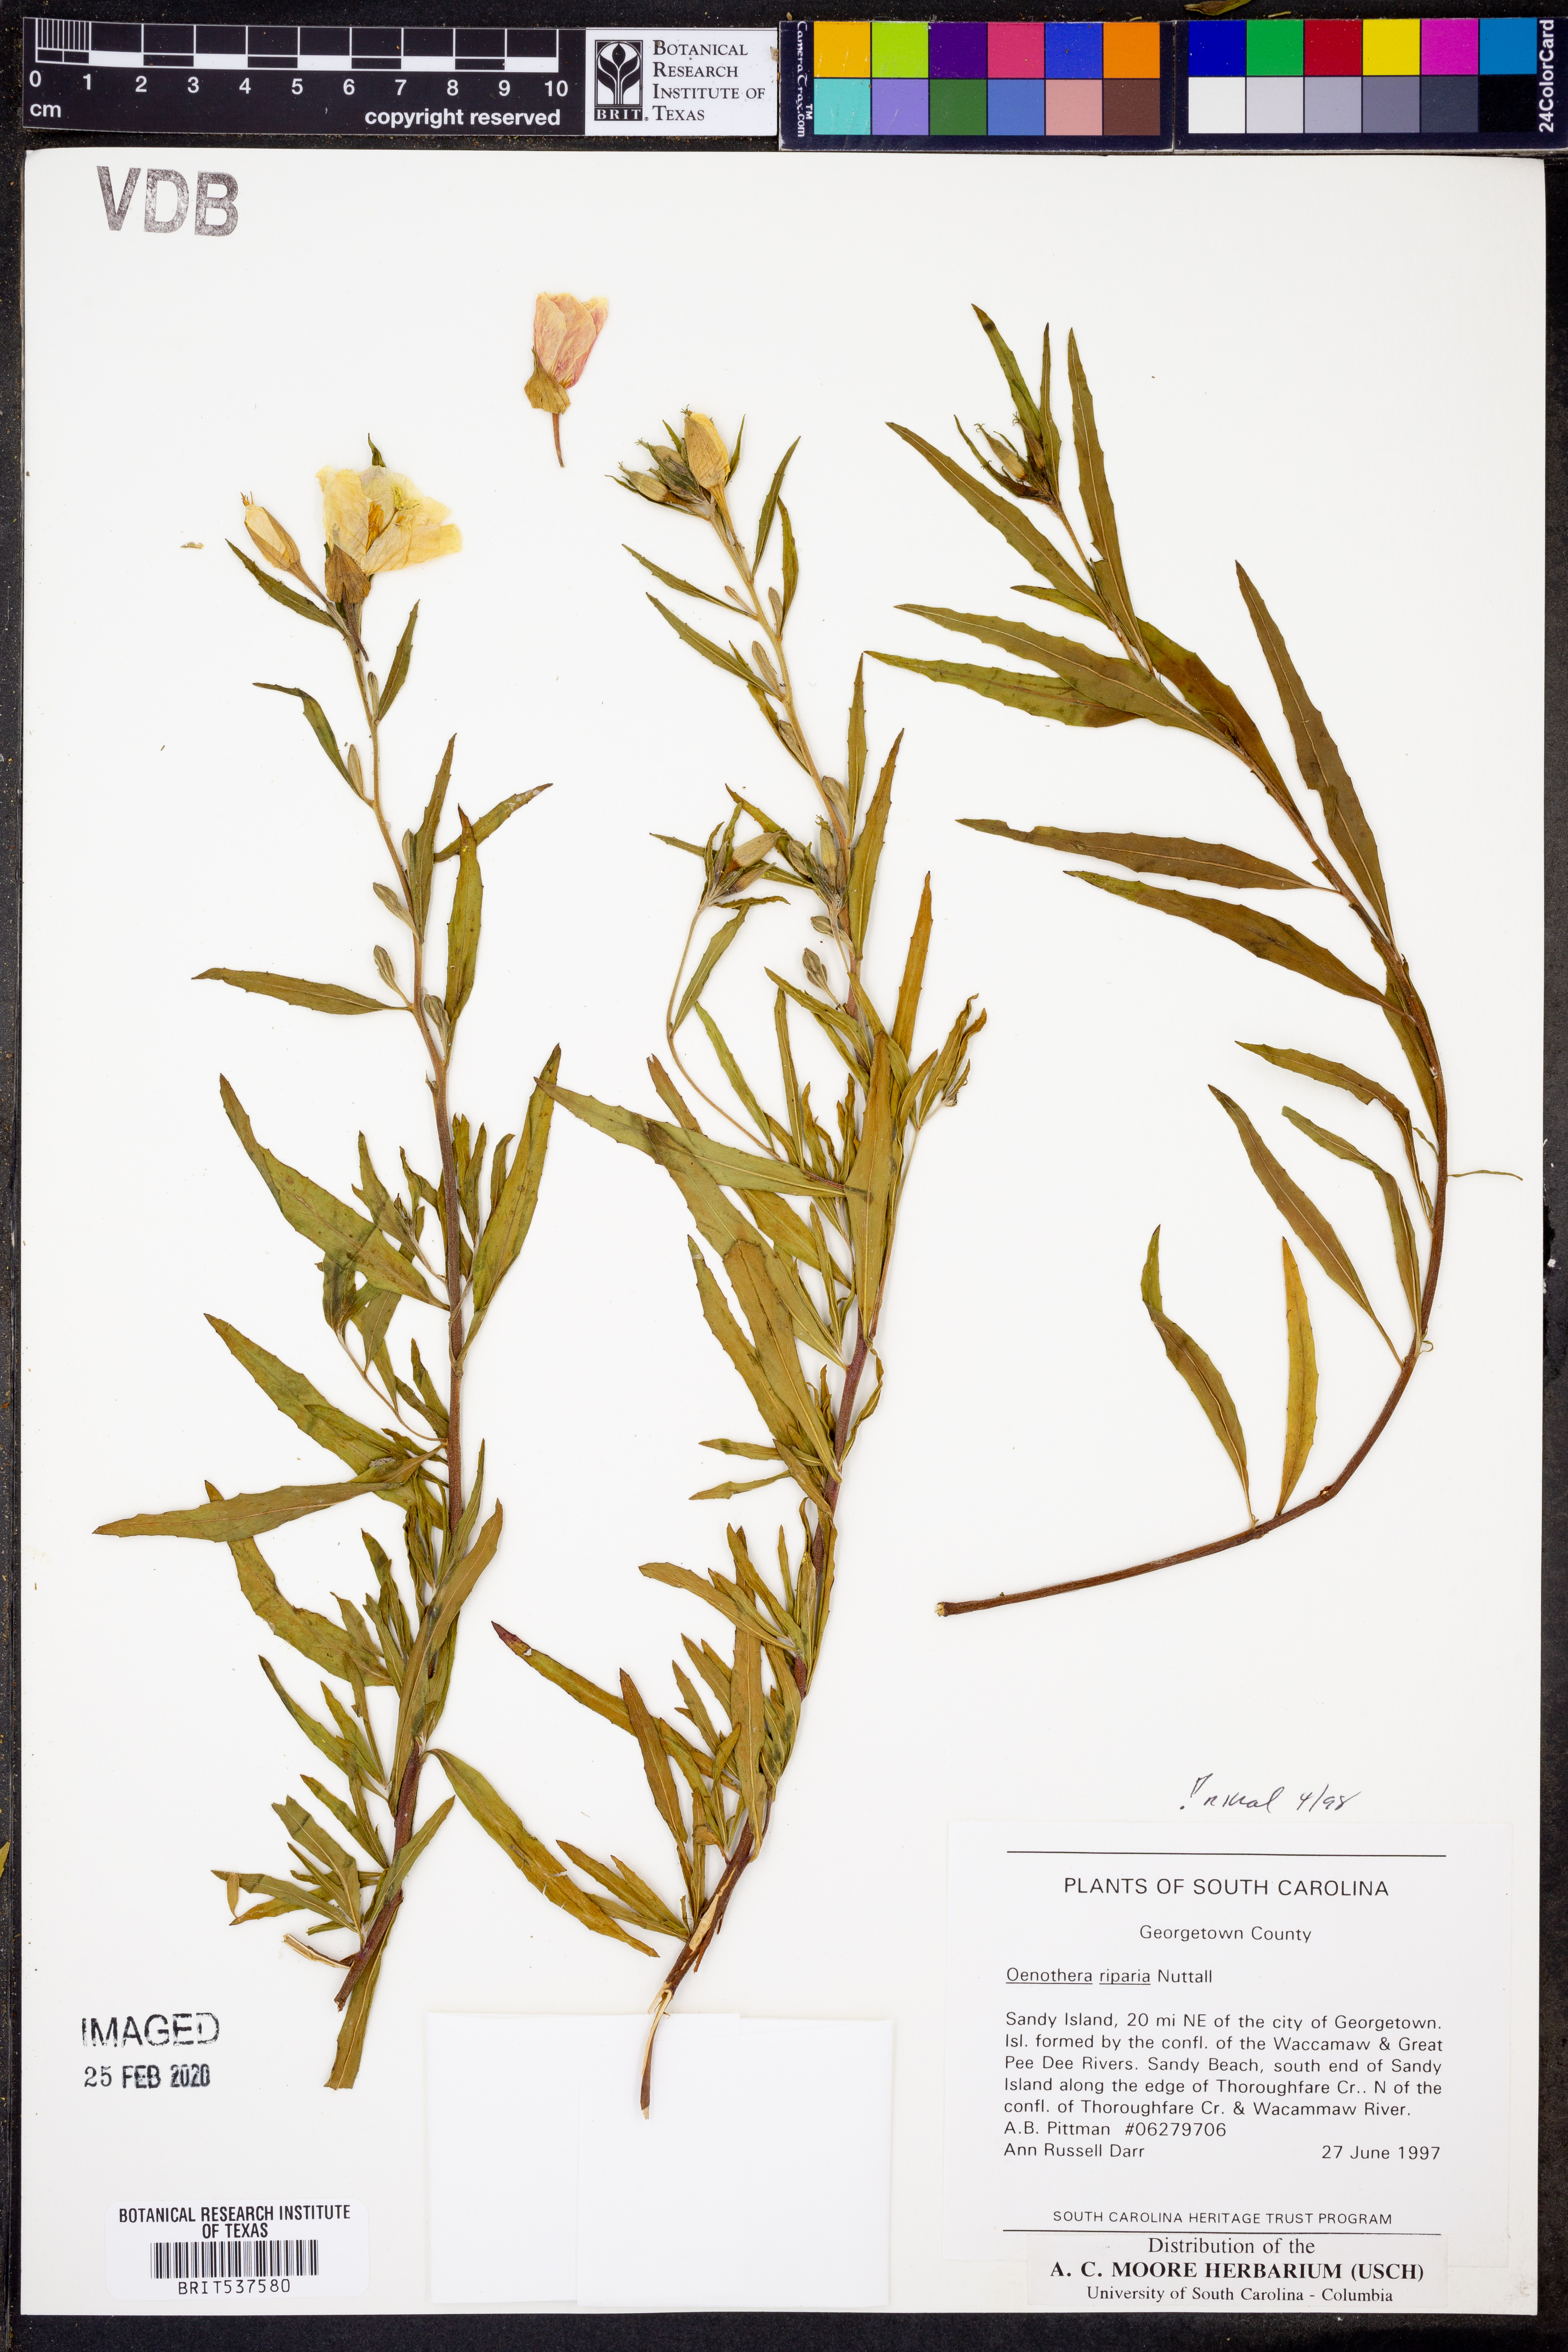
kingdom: Plantae
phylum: Tracheophyta
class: Magnoliopsida
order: Myrtales
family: Onagraceae
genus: Oenothera
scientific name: Oenothera tetragona
